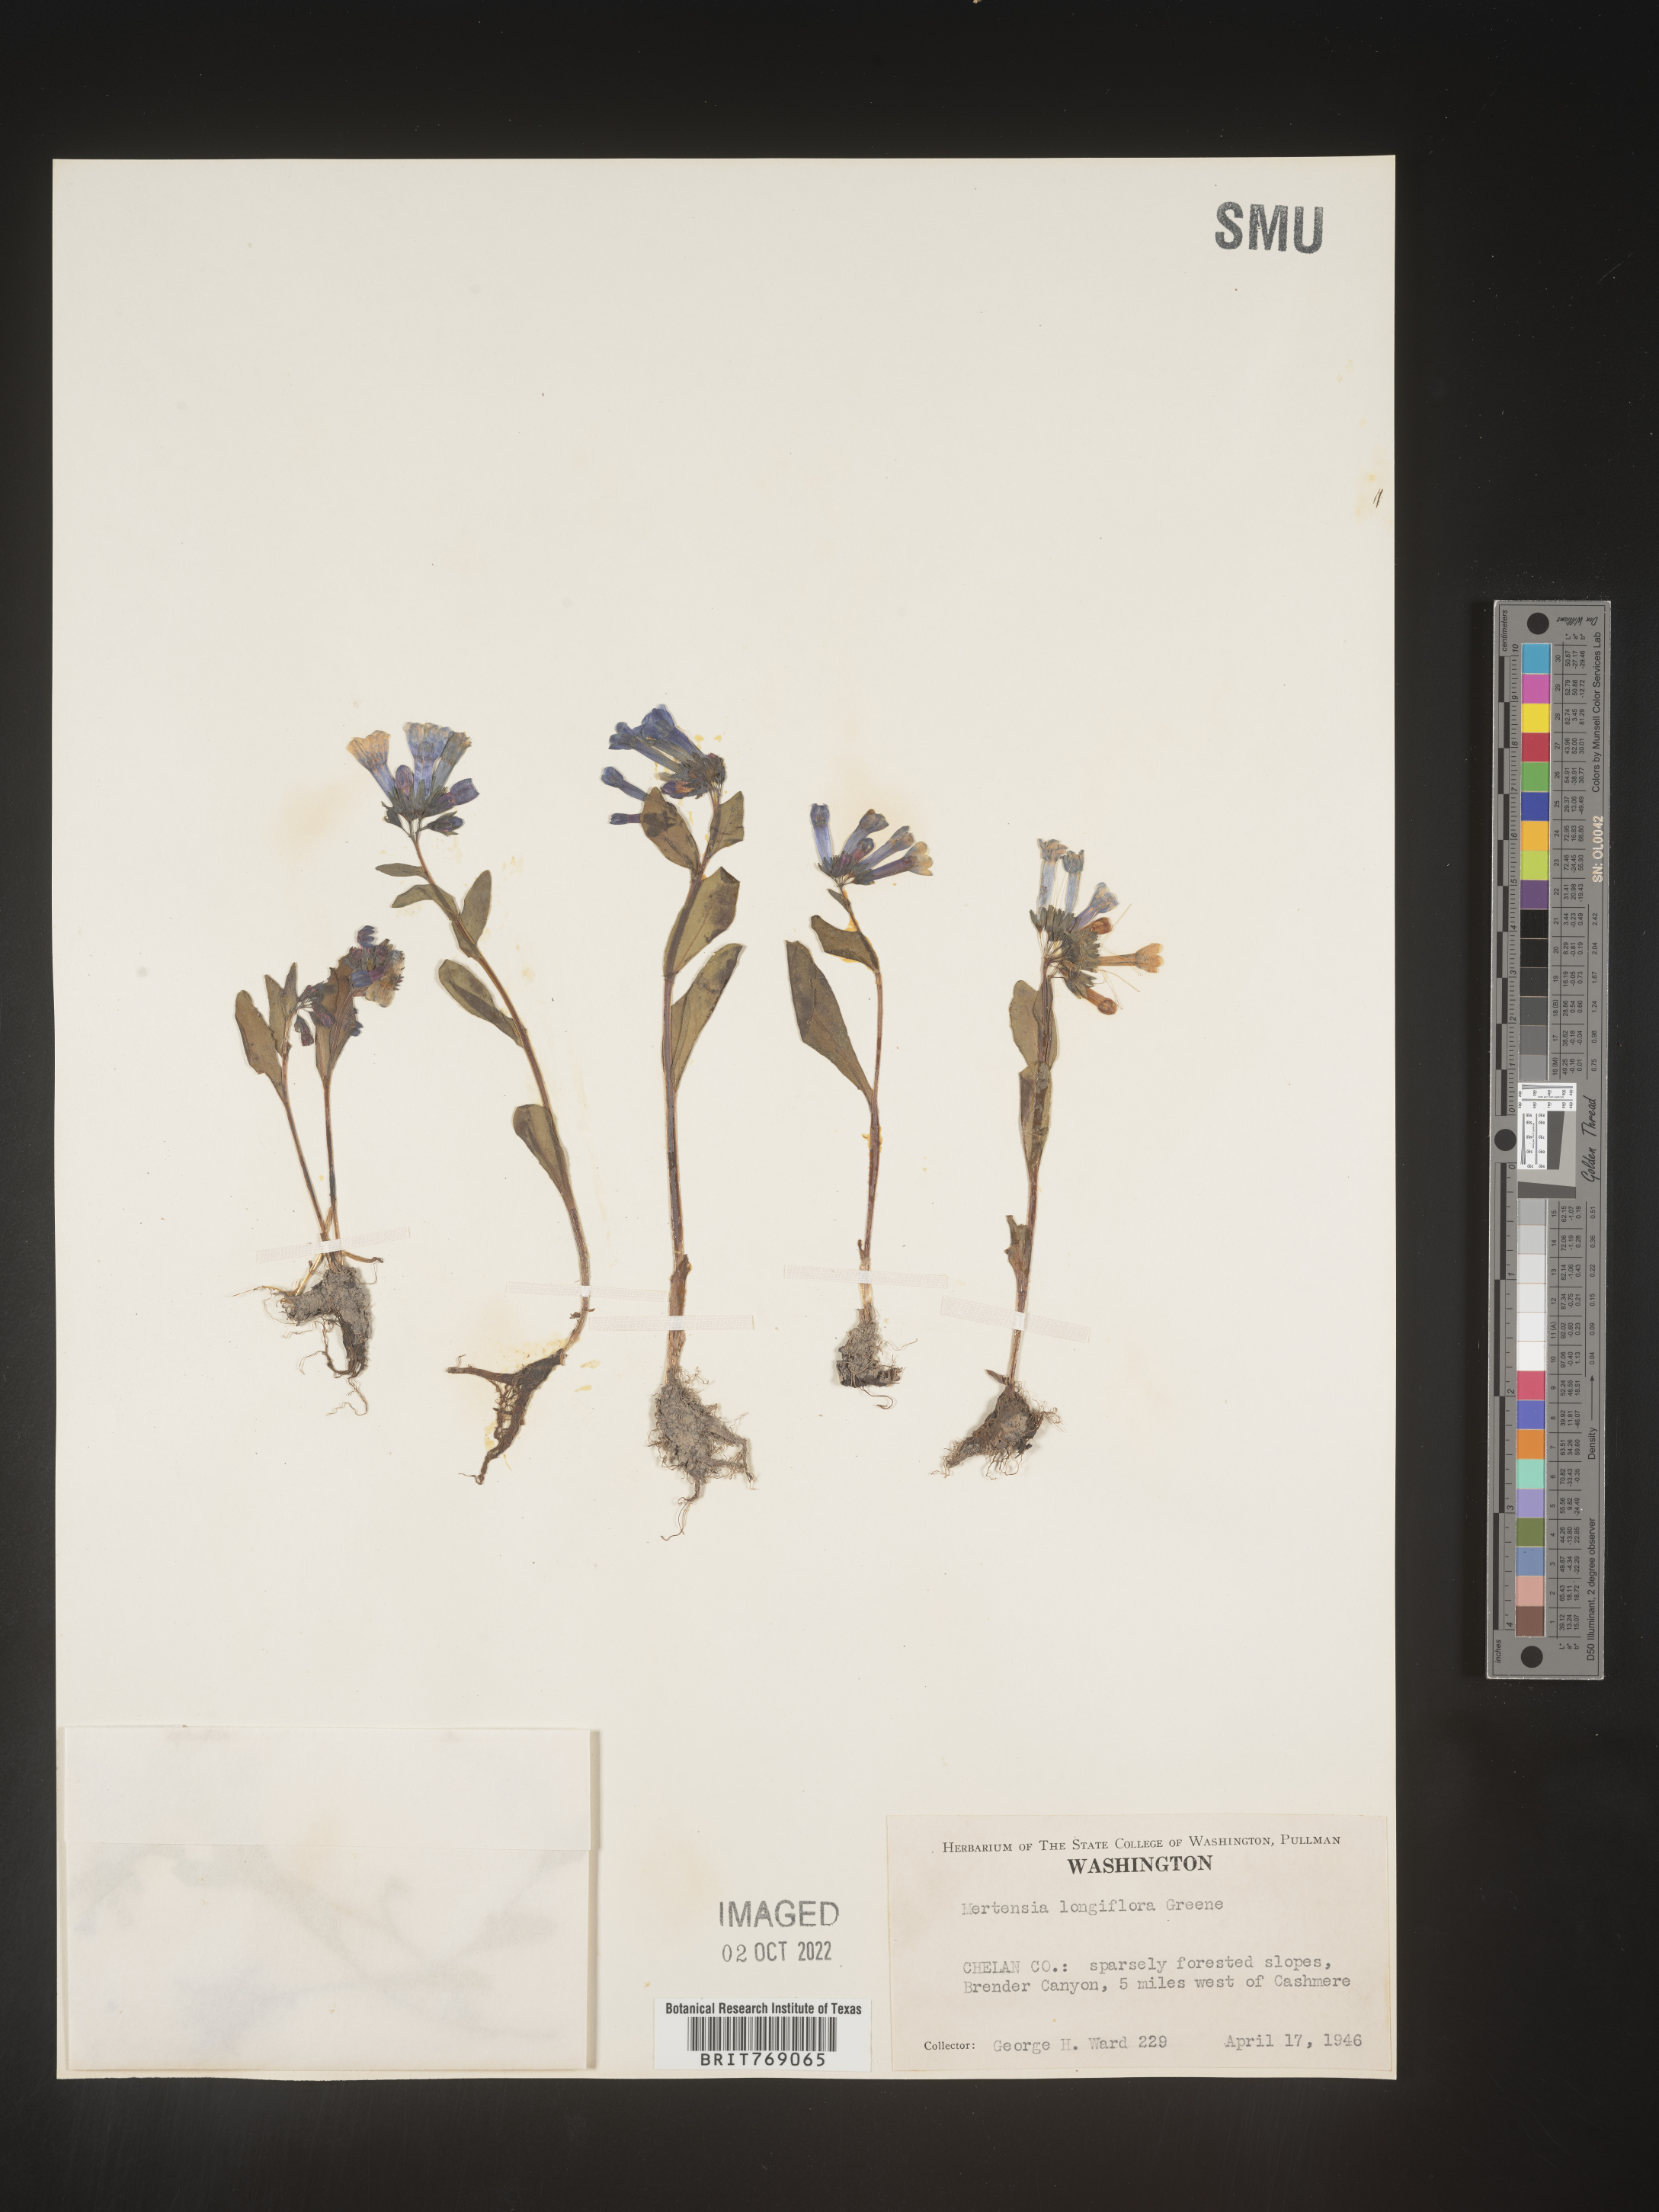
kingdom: Plantae
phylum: Tracheophyta
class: Magnoliopsida
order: Boraginales
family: Boraginaceae
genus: Mertensia
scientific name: Mertensia
